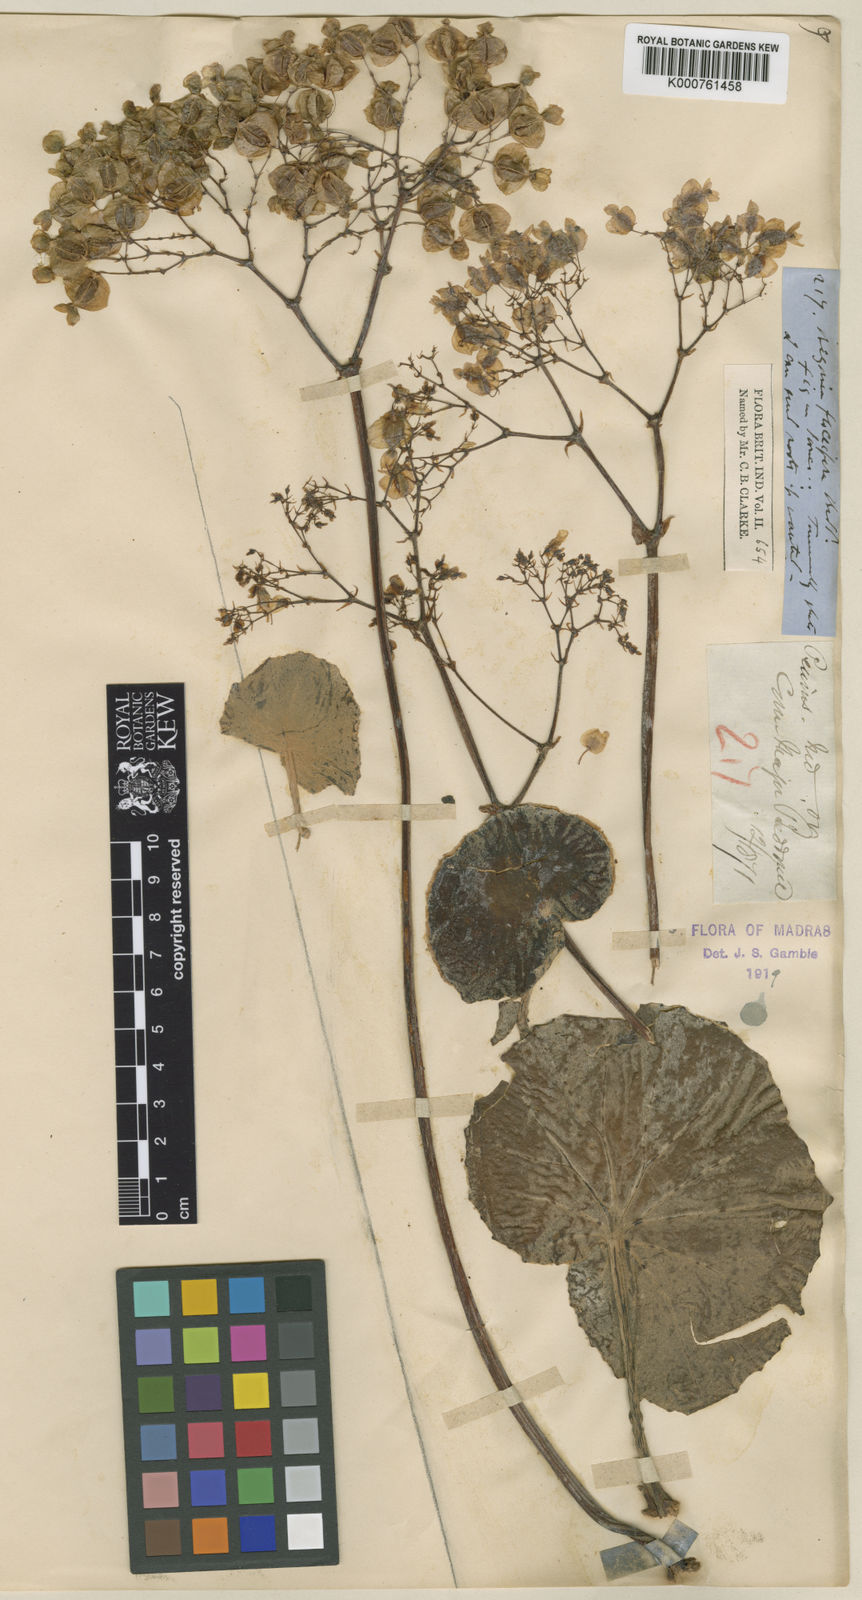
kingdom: Plantae
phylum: Tracheophyta
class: Magnoliopsida
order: Cucurbitales
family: Begoniaceae
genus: Begonia
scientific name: Begonia floccifera
